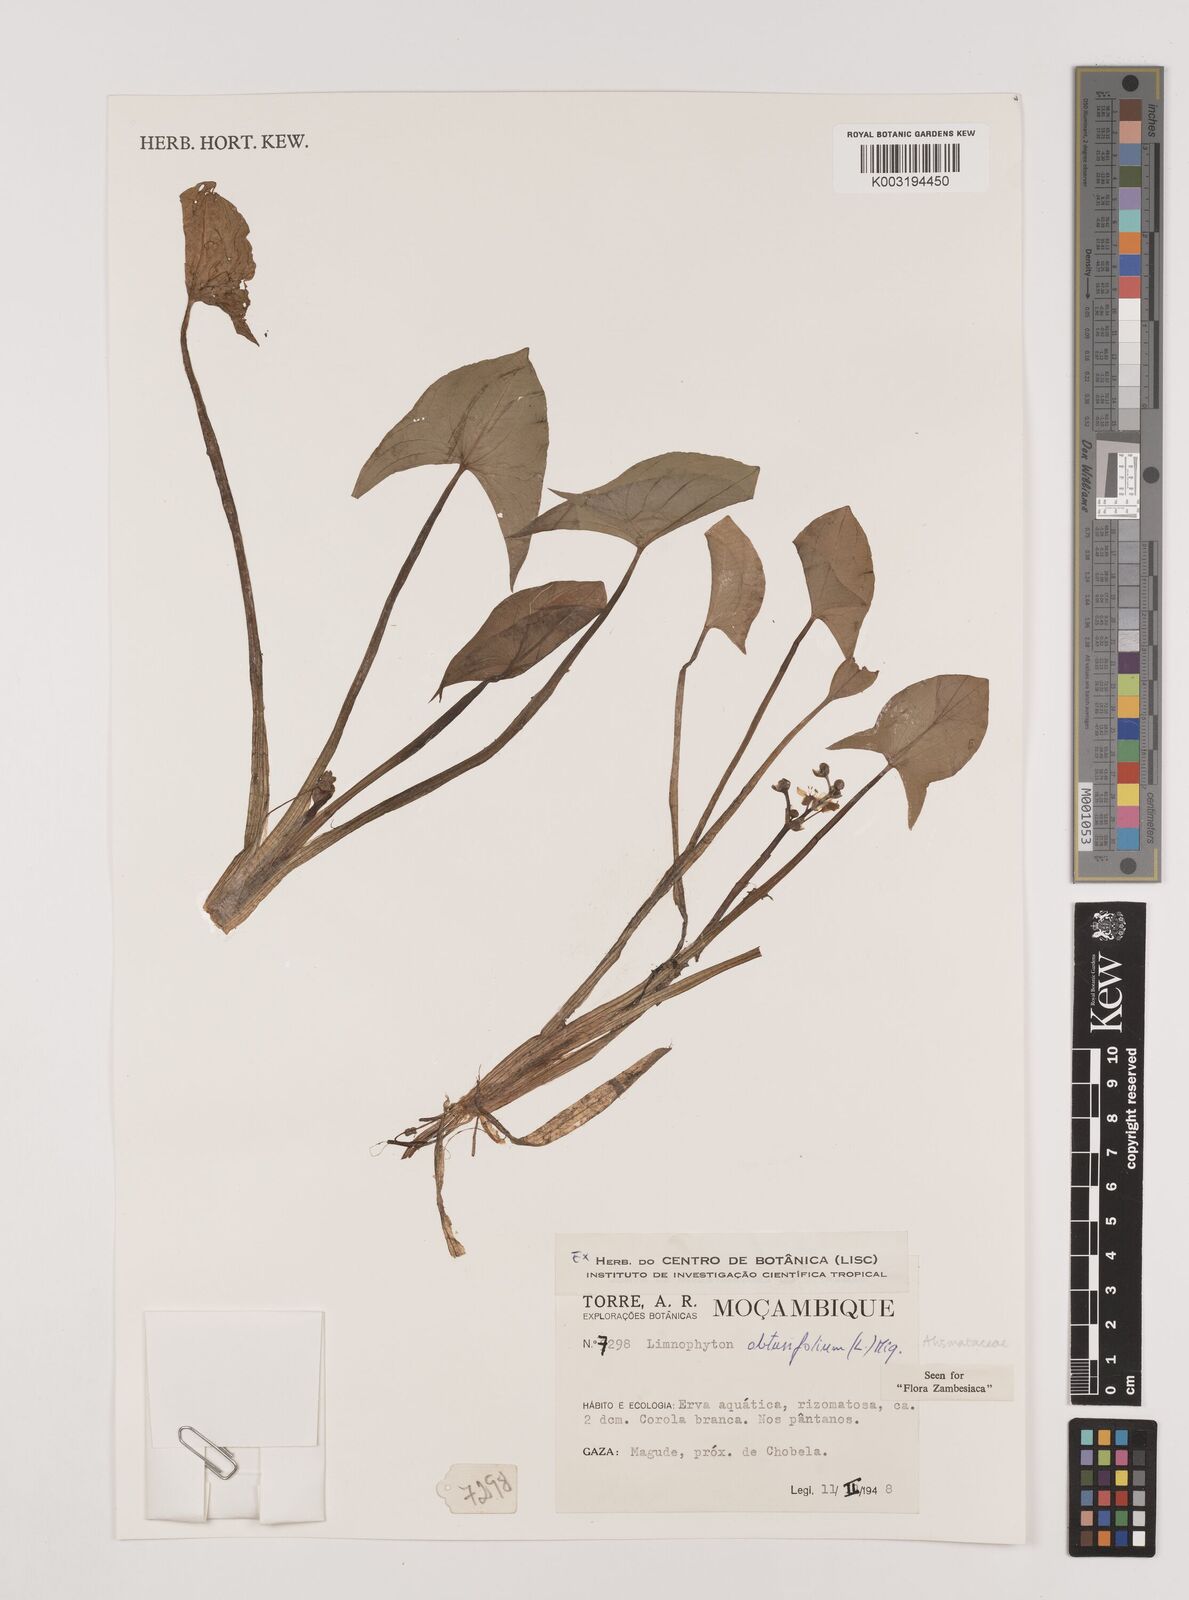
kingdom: Plantae
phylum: Tracheophyta
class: Liliopsida
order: Alismatales
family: Alismataceae
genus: Limnophyton
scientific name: Limnophyton obtusifolium
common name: Arrow head
